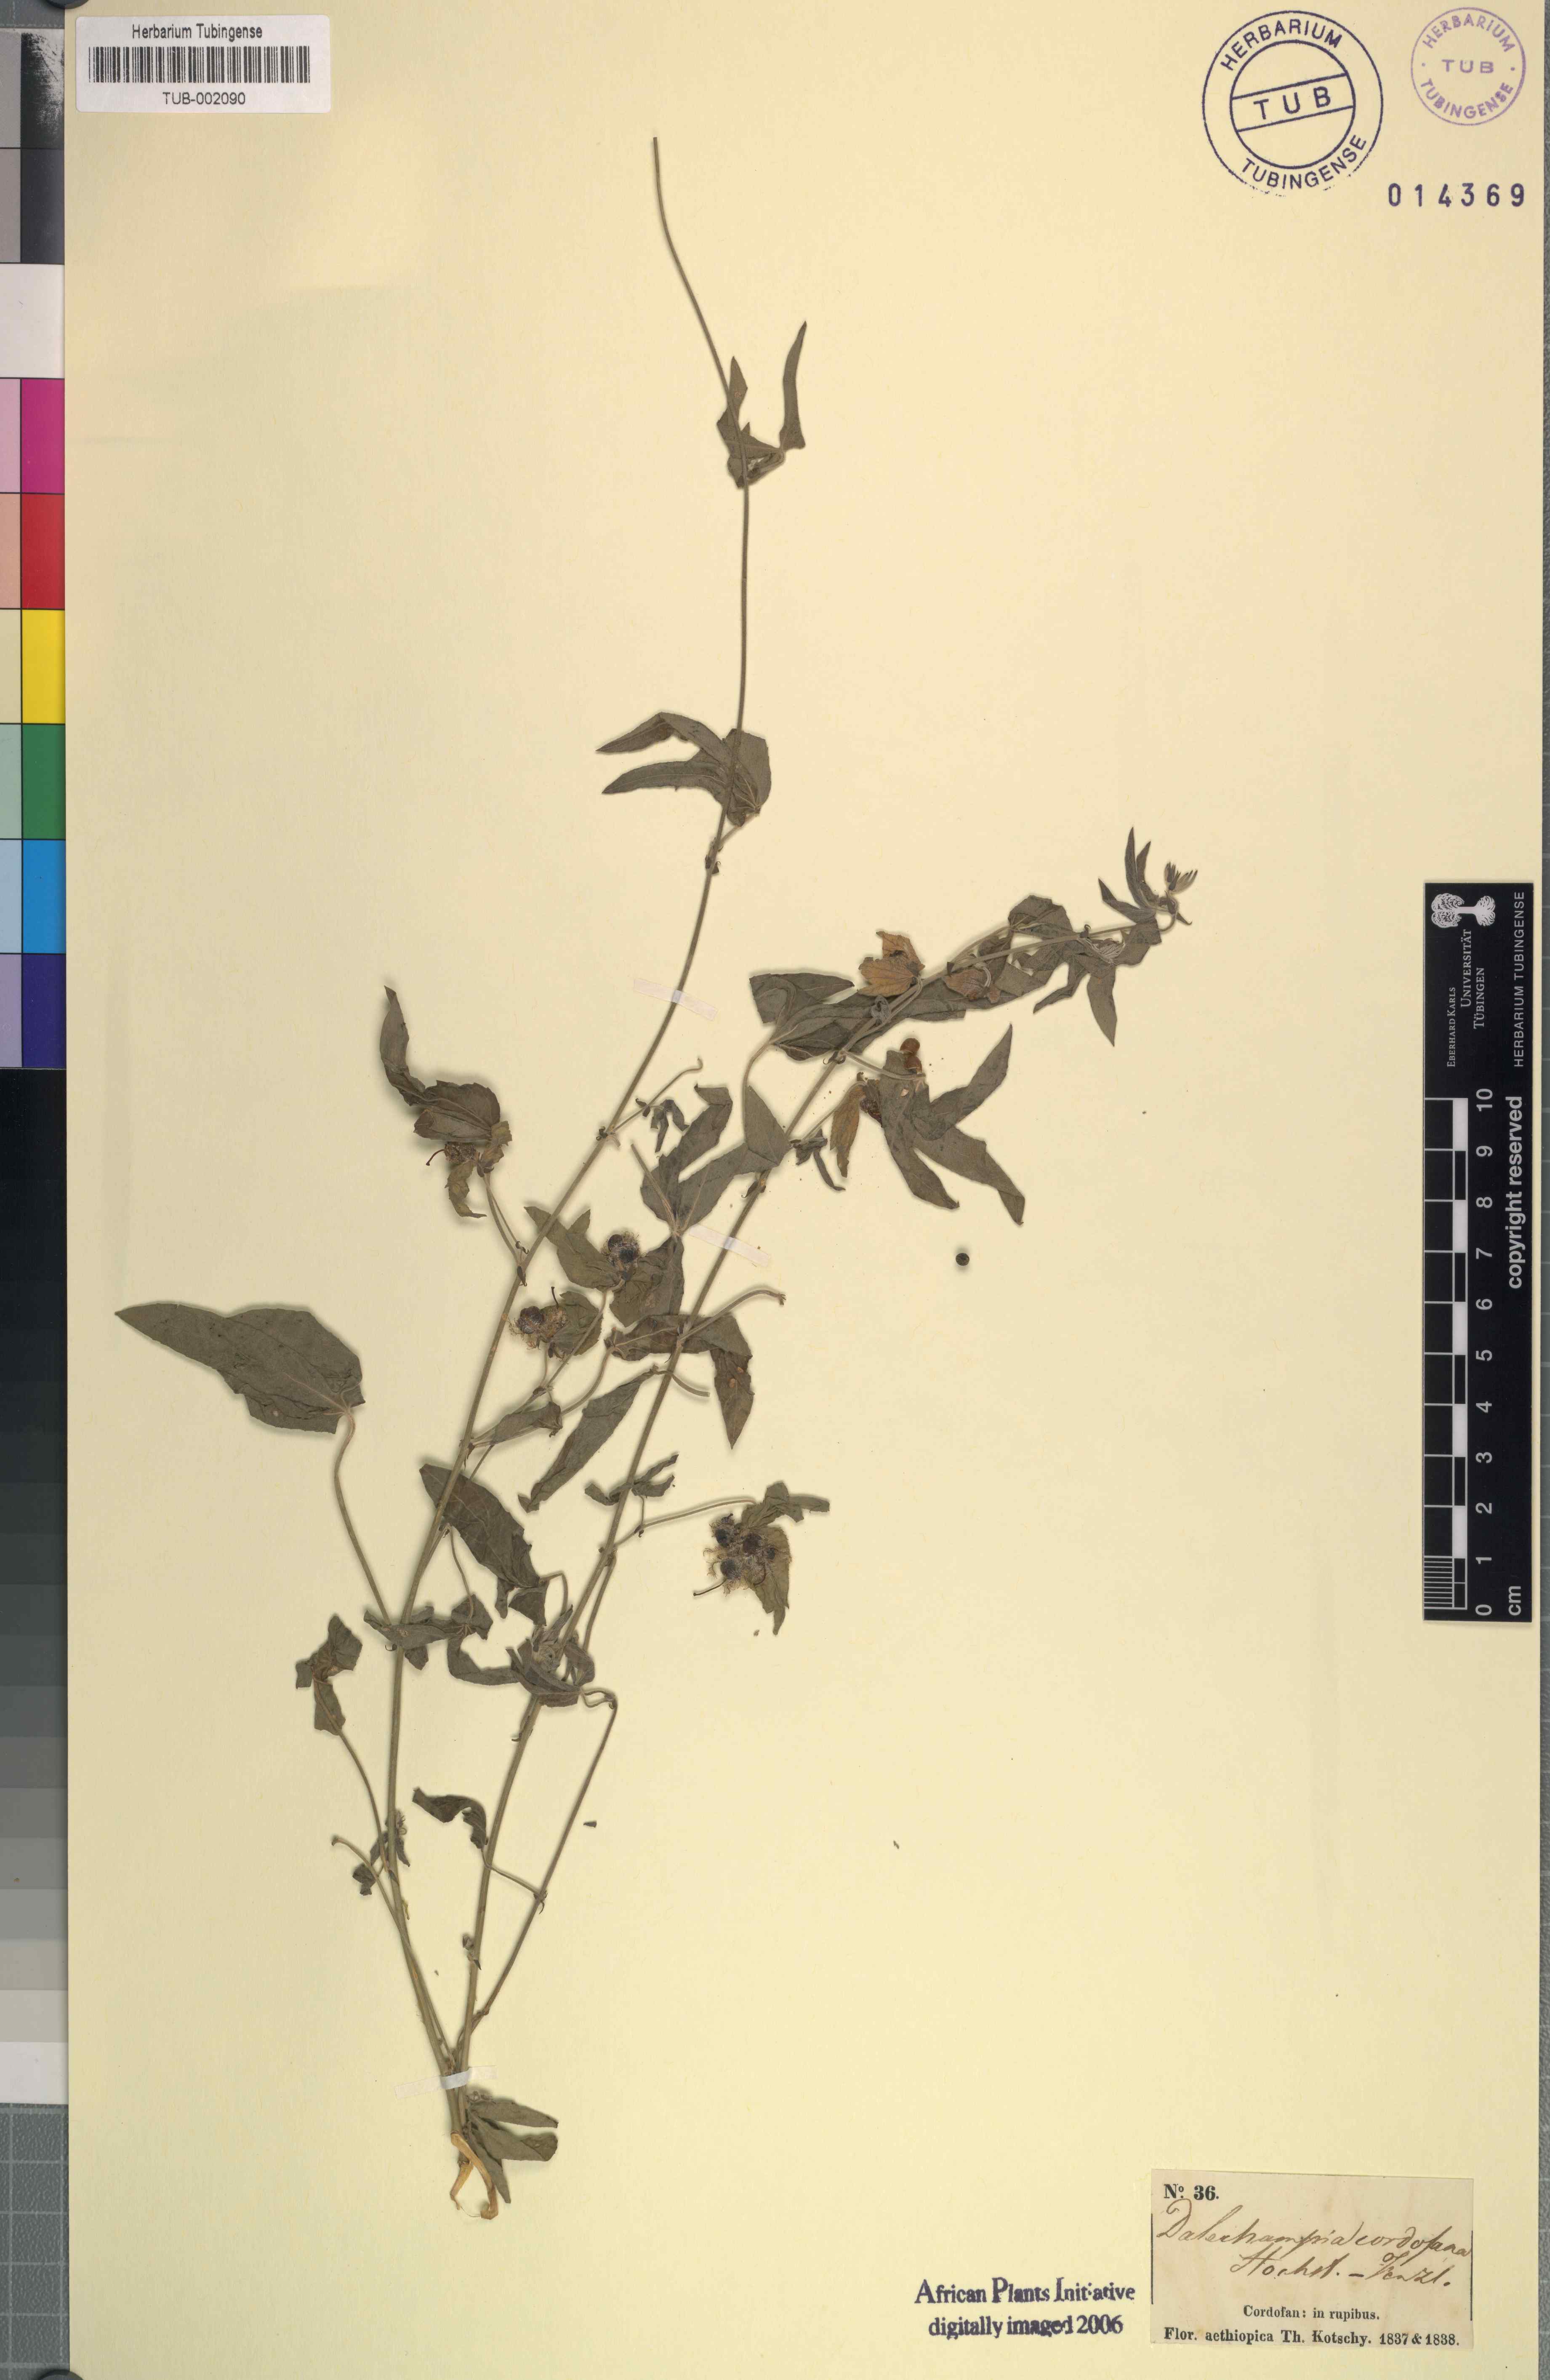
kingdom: Plantae
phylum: Tracheophyta
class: Magnoliopsida
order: Malpighiales
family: Euphorbiaceae
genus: Dalechampia
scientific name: Dalechampia scandens
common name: Spurgecreeper
